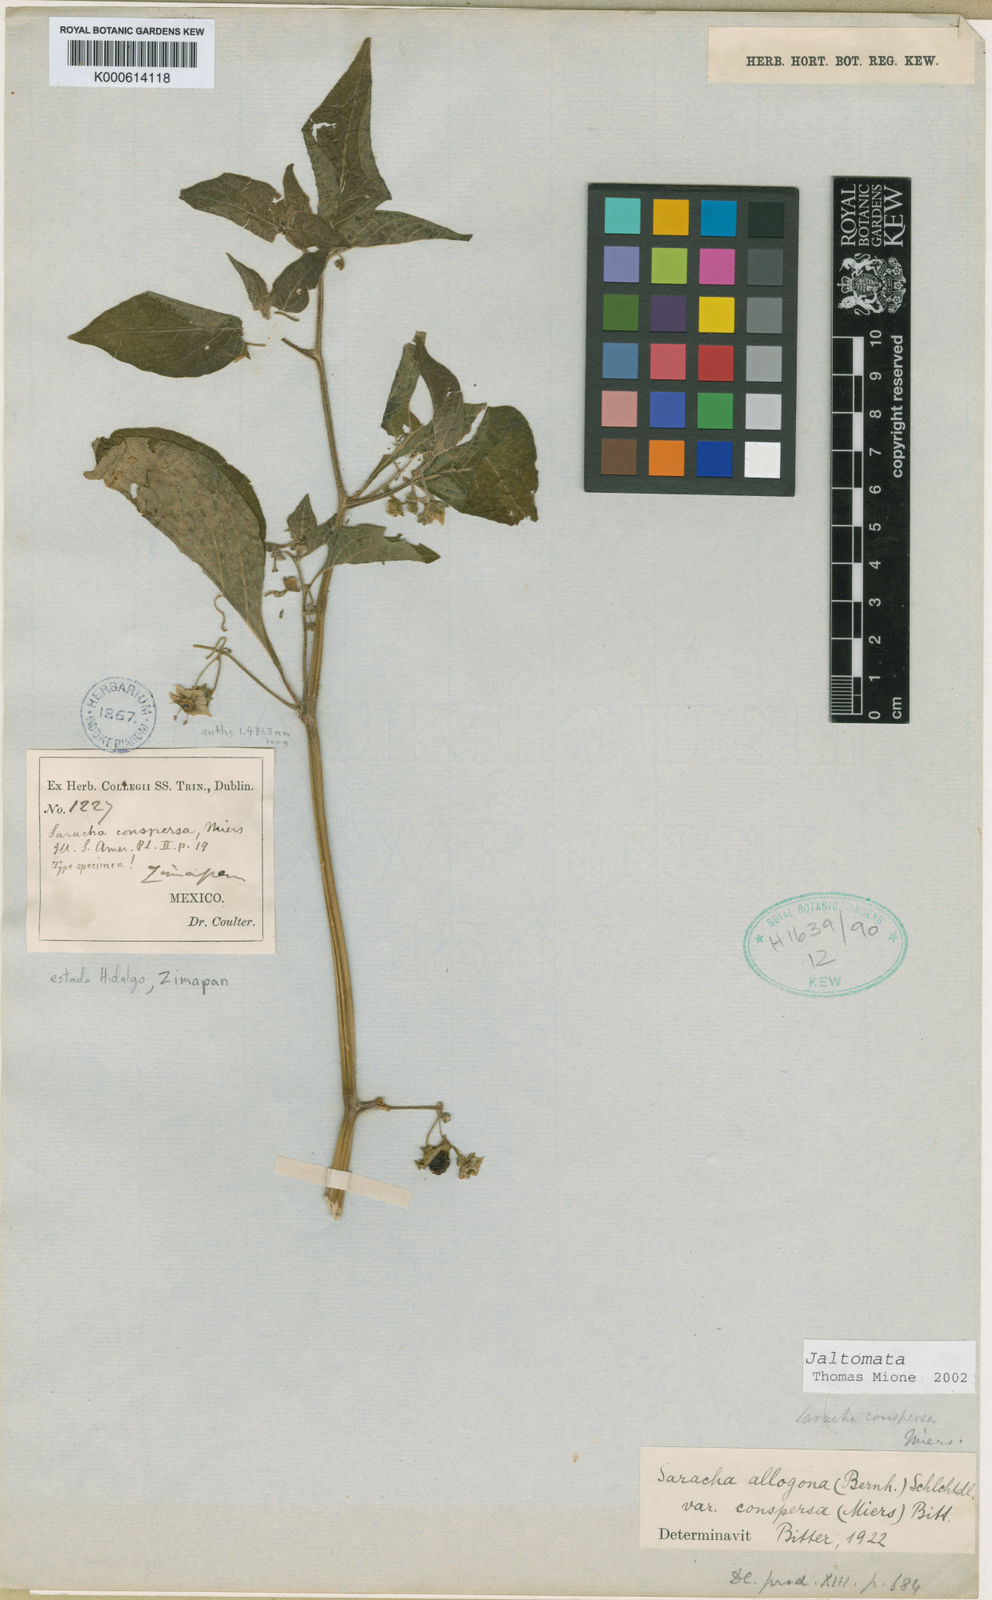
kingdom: Plantae
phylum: Tracheophyta
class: Magnoliopsida
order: Solanales
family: Solanaceae
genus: Jaltomata
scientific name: Jaltomata procumbens
